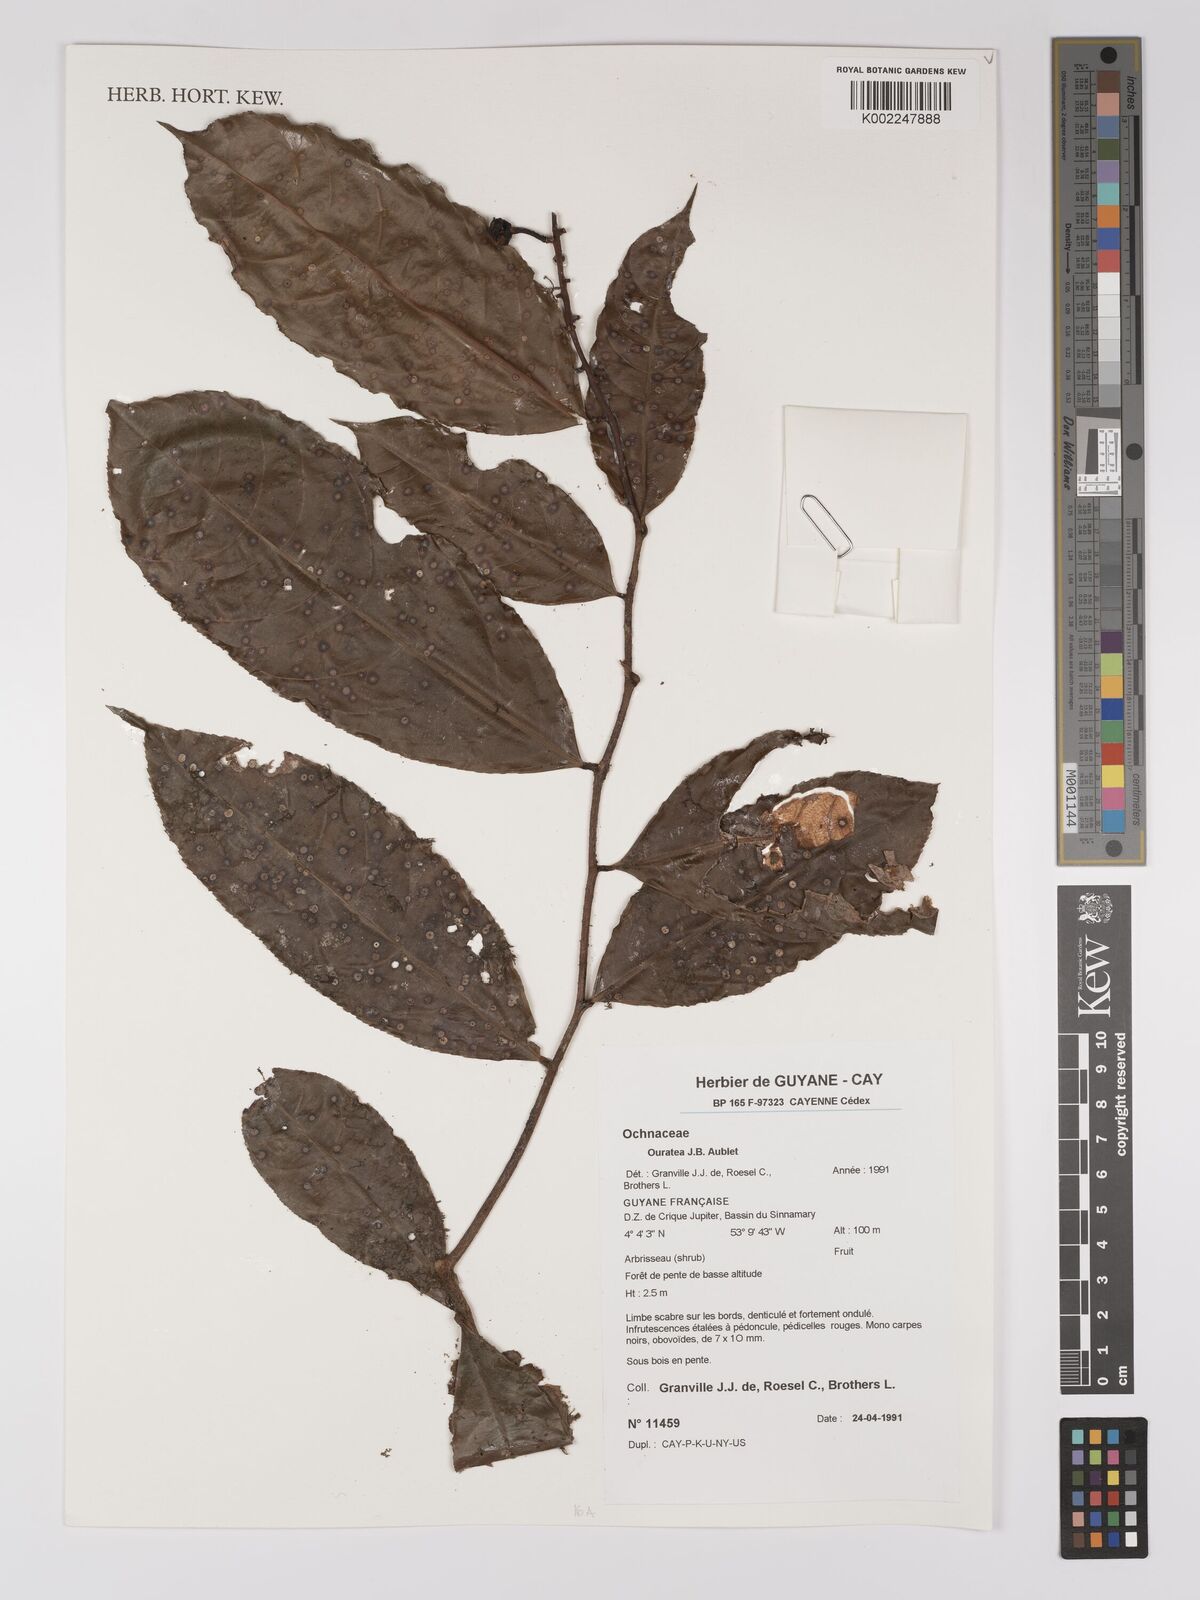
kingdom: Plantae
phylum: Tracheophyta
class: Magnoliopsida
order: Malpighiales
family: Ochnaceae
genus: Ouratea
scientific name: Ouratea
